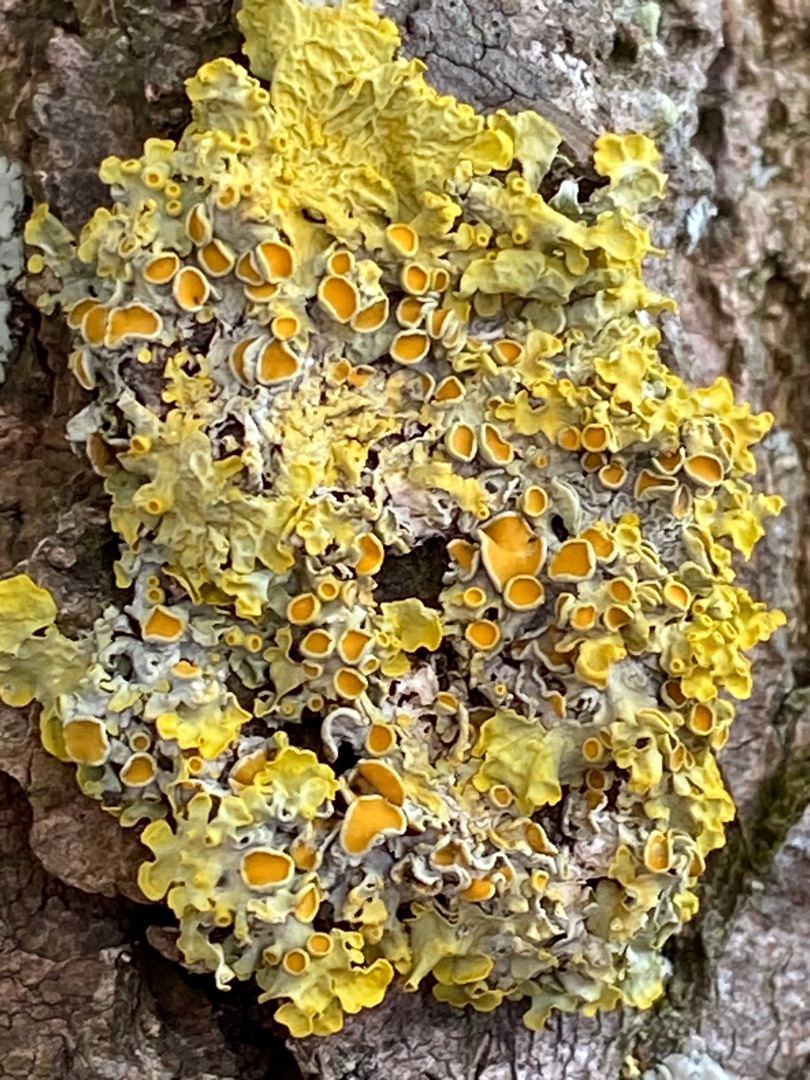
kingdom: Fungi
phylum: Ascomycota
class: Lecanoromycetes
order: Teloschistales
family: Teloschistaceae
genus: Xanthoria
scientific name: Xanthoria parietina
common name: Almindelig væggelav
